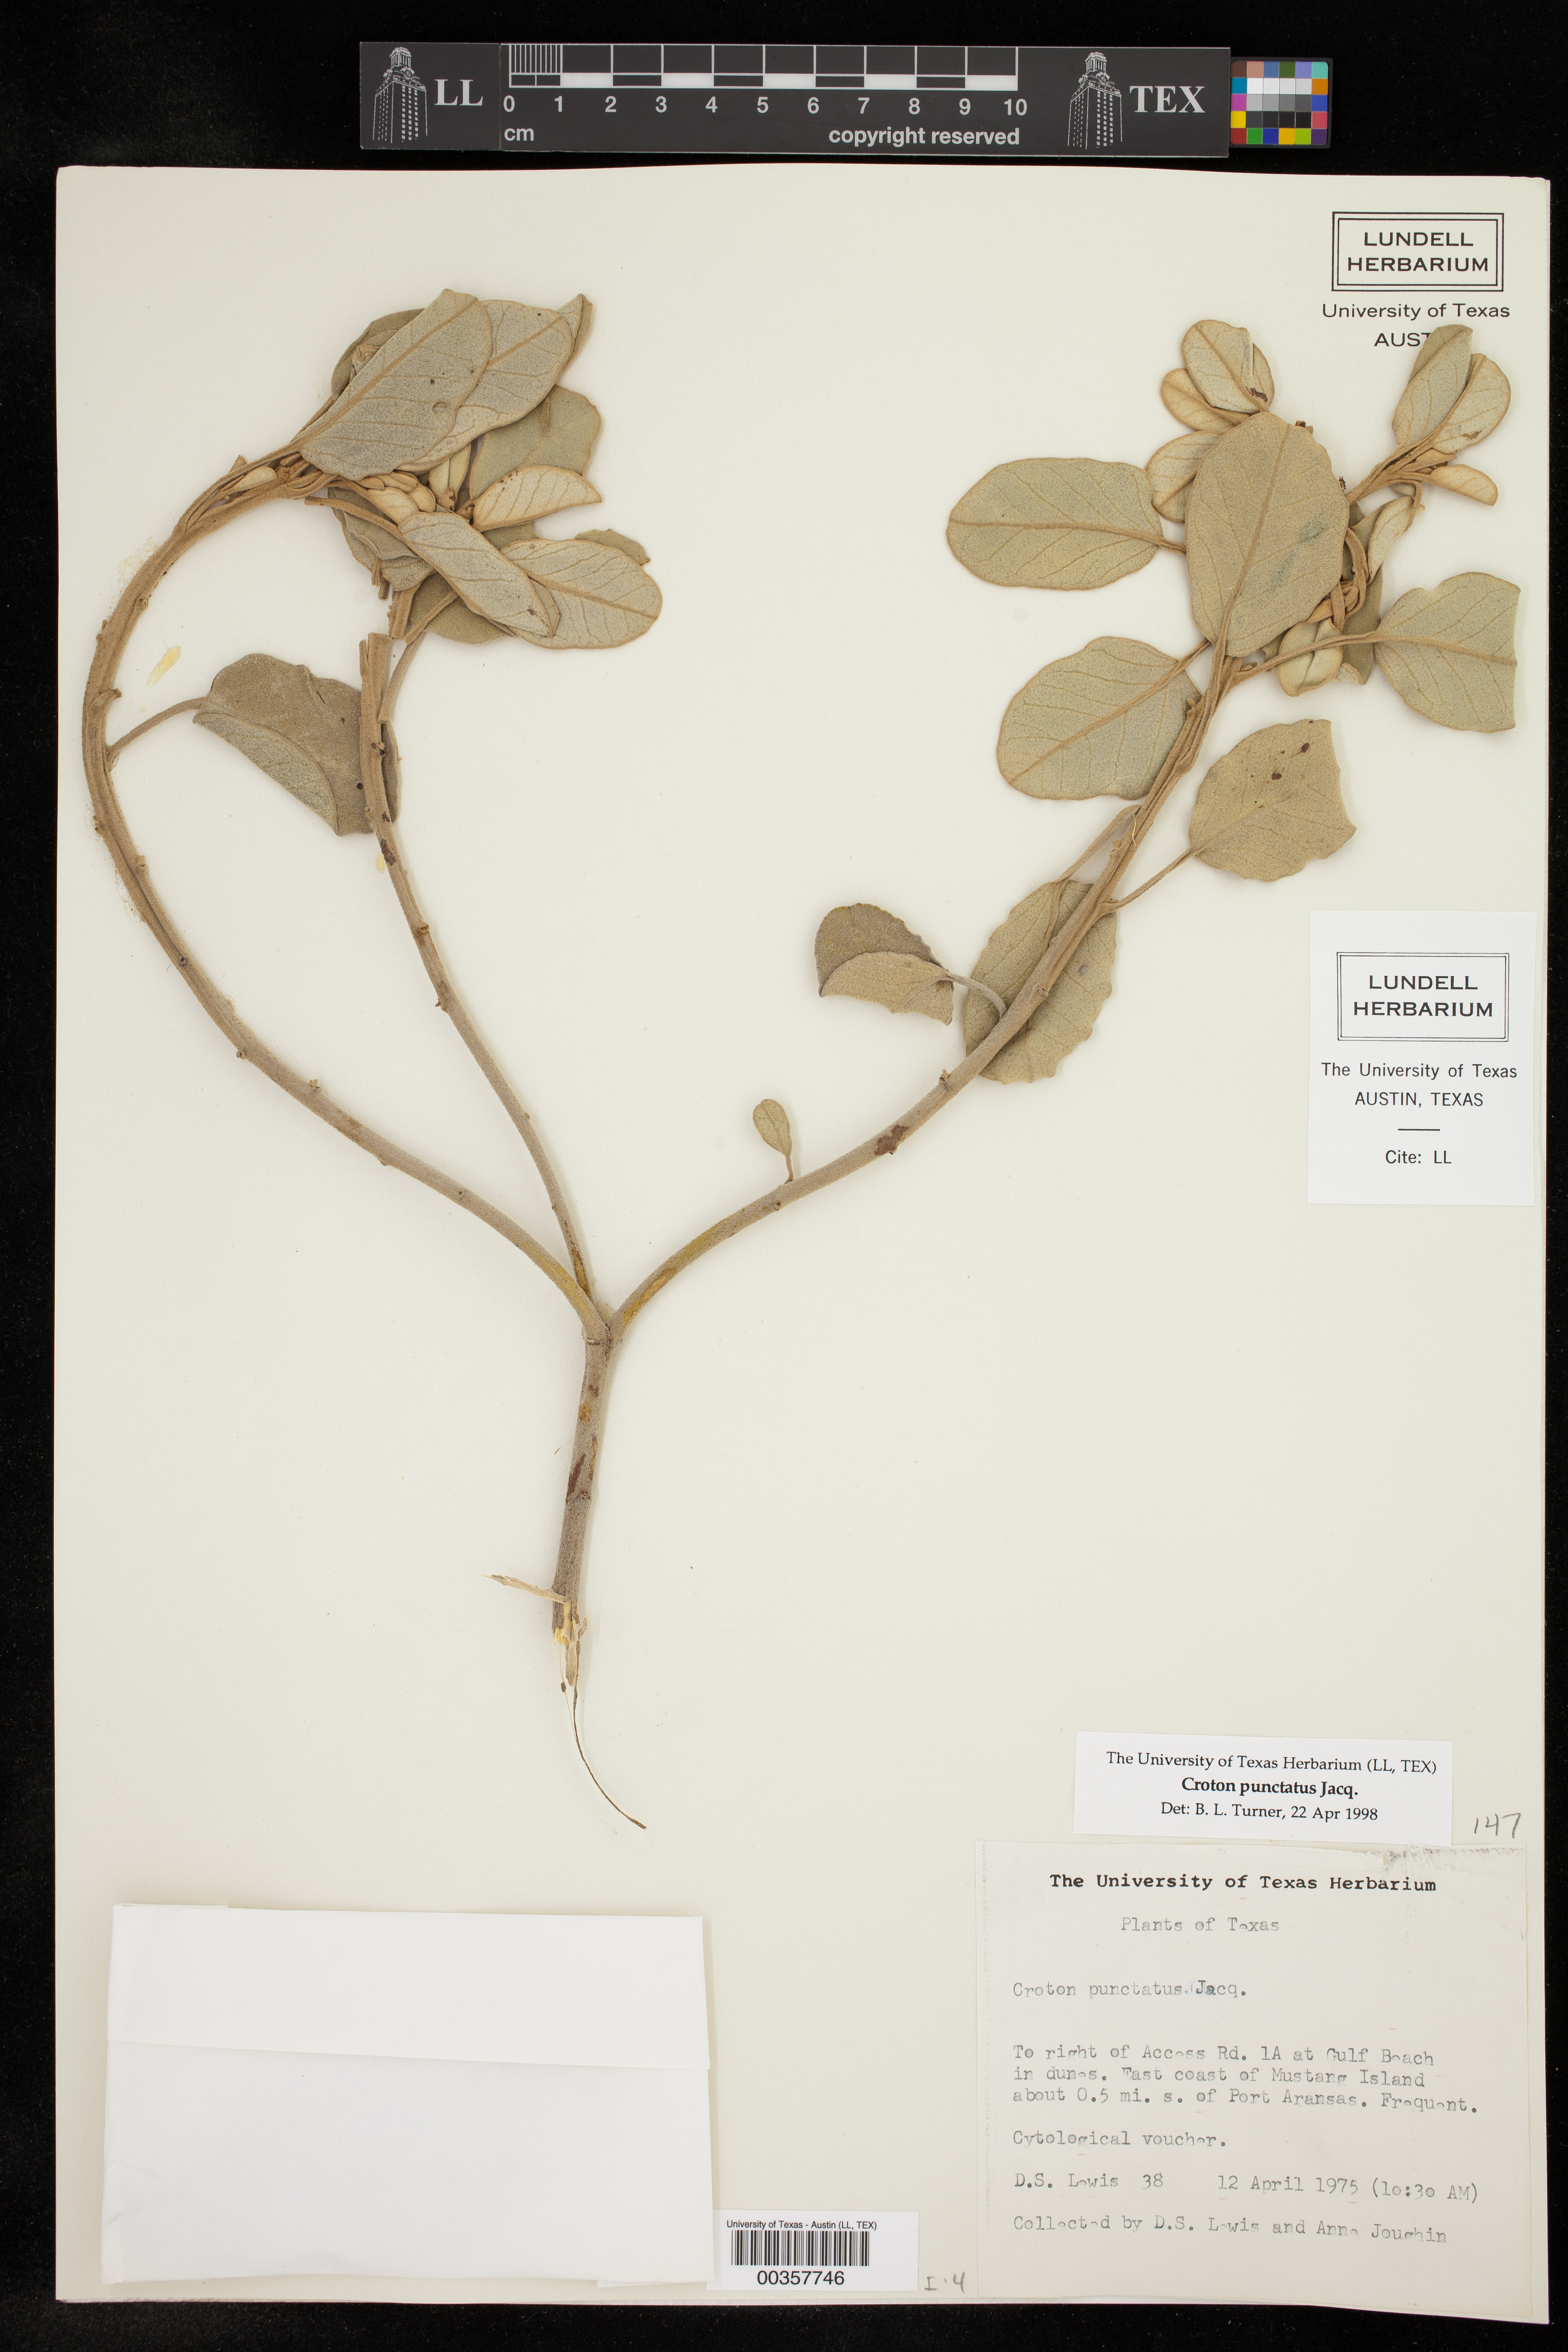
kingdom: Plantae
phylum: Tracheophyta
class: Magnoliopsida
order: Malpighiales
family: Euphorbiaceae
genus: Croton
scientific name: Croton punctatus
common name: Beach-tea
